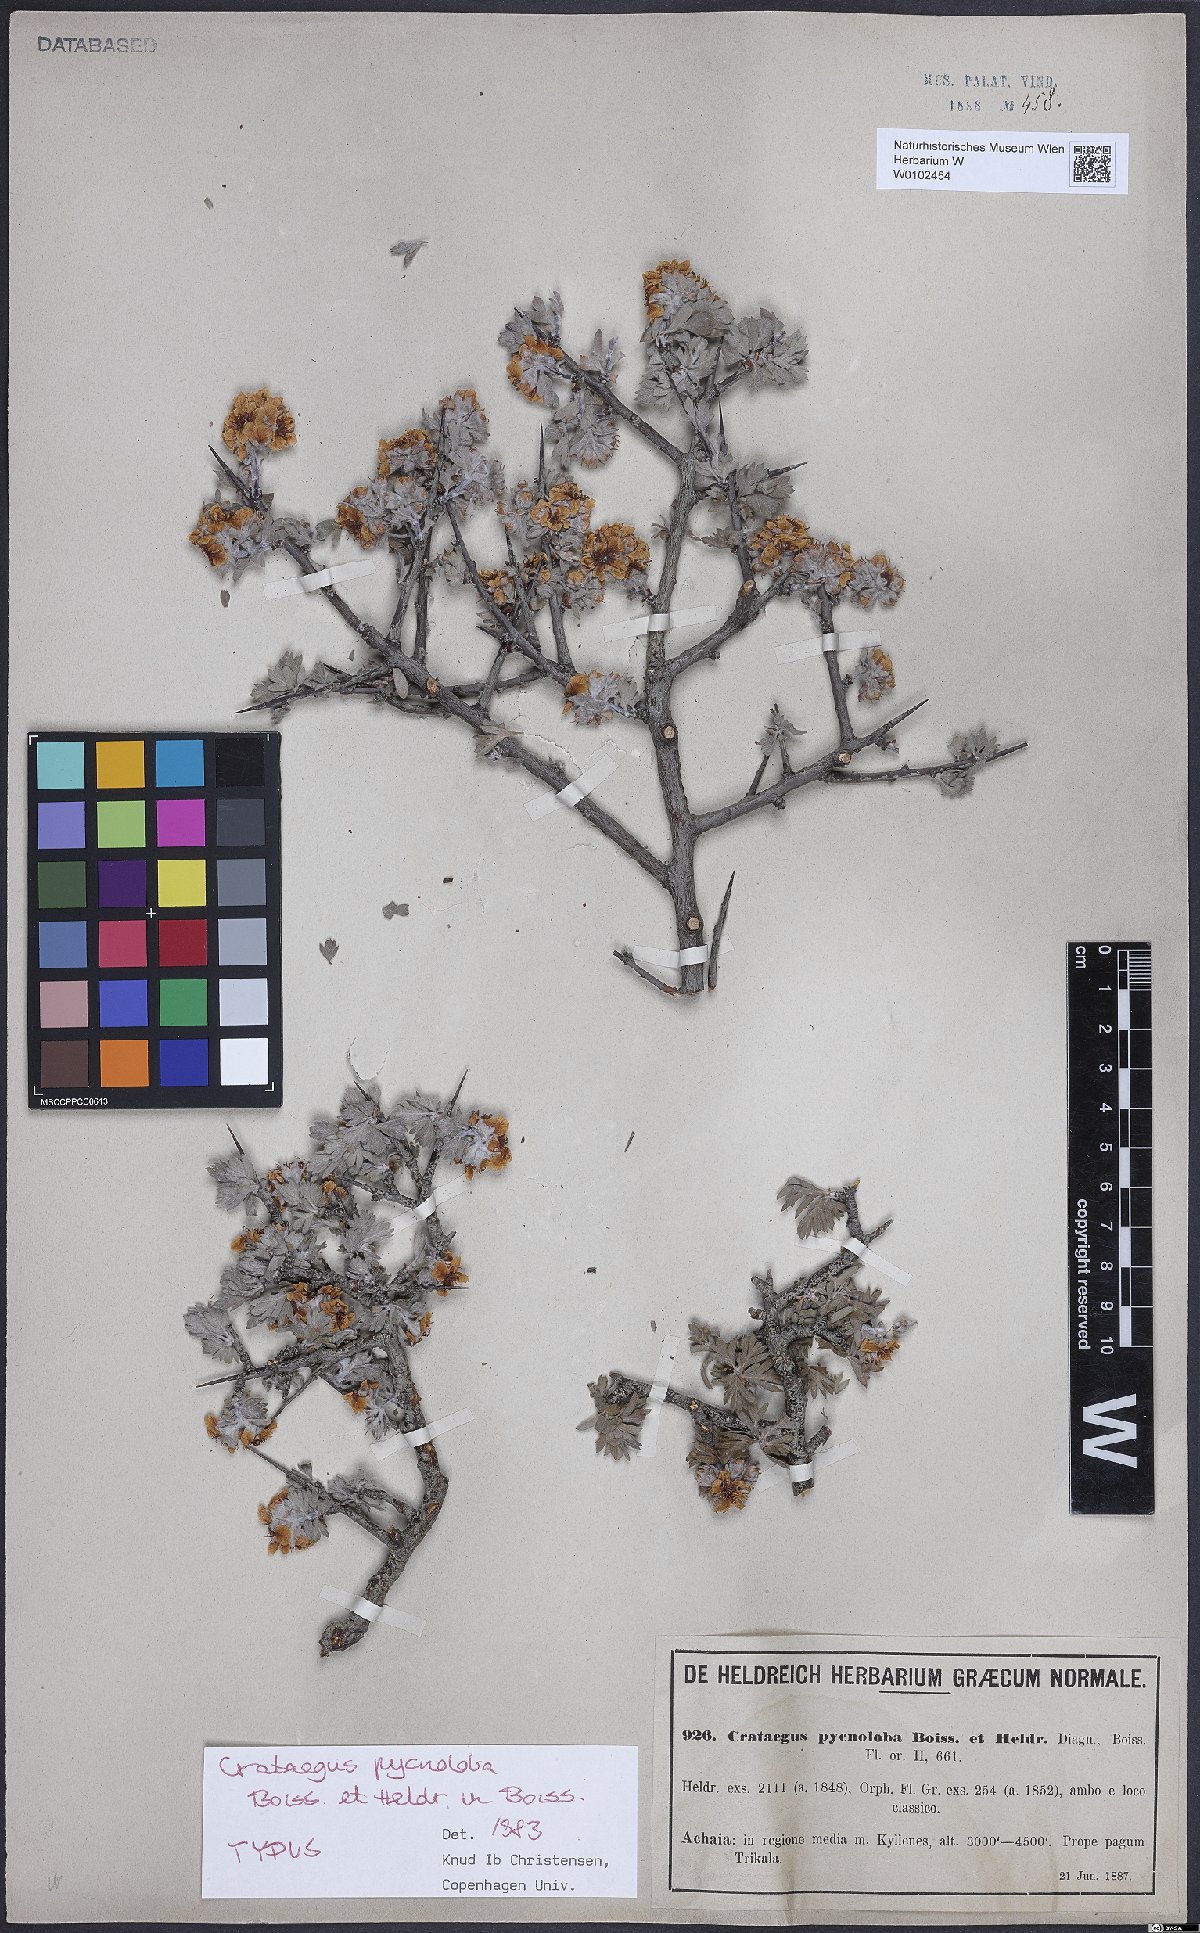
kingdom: Plantae
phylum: Tracheophyta
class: Magnoliopsida
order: Rosales
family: Rosaceae
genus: Crataegus
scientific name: Crataegus pycnoloba
